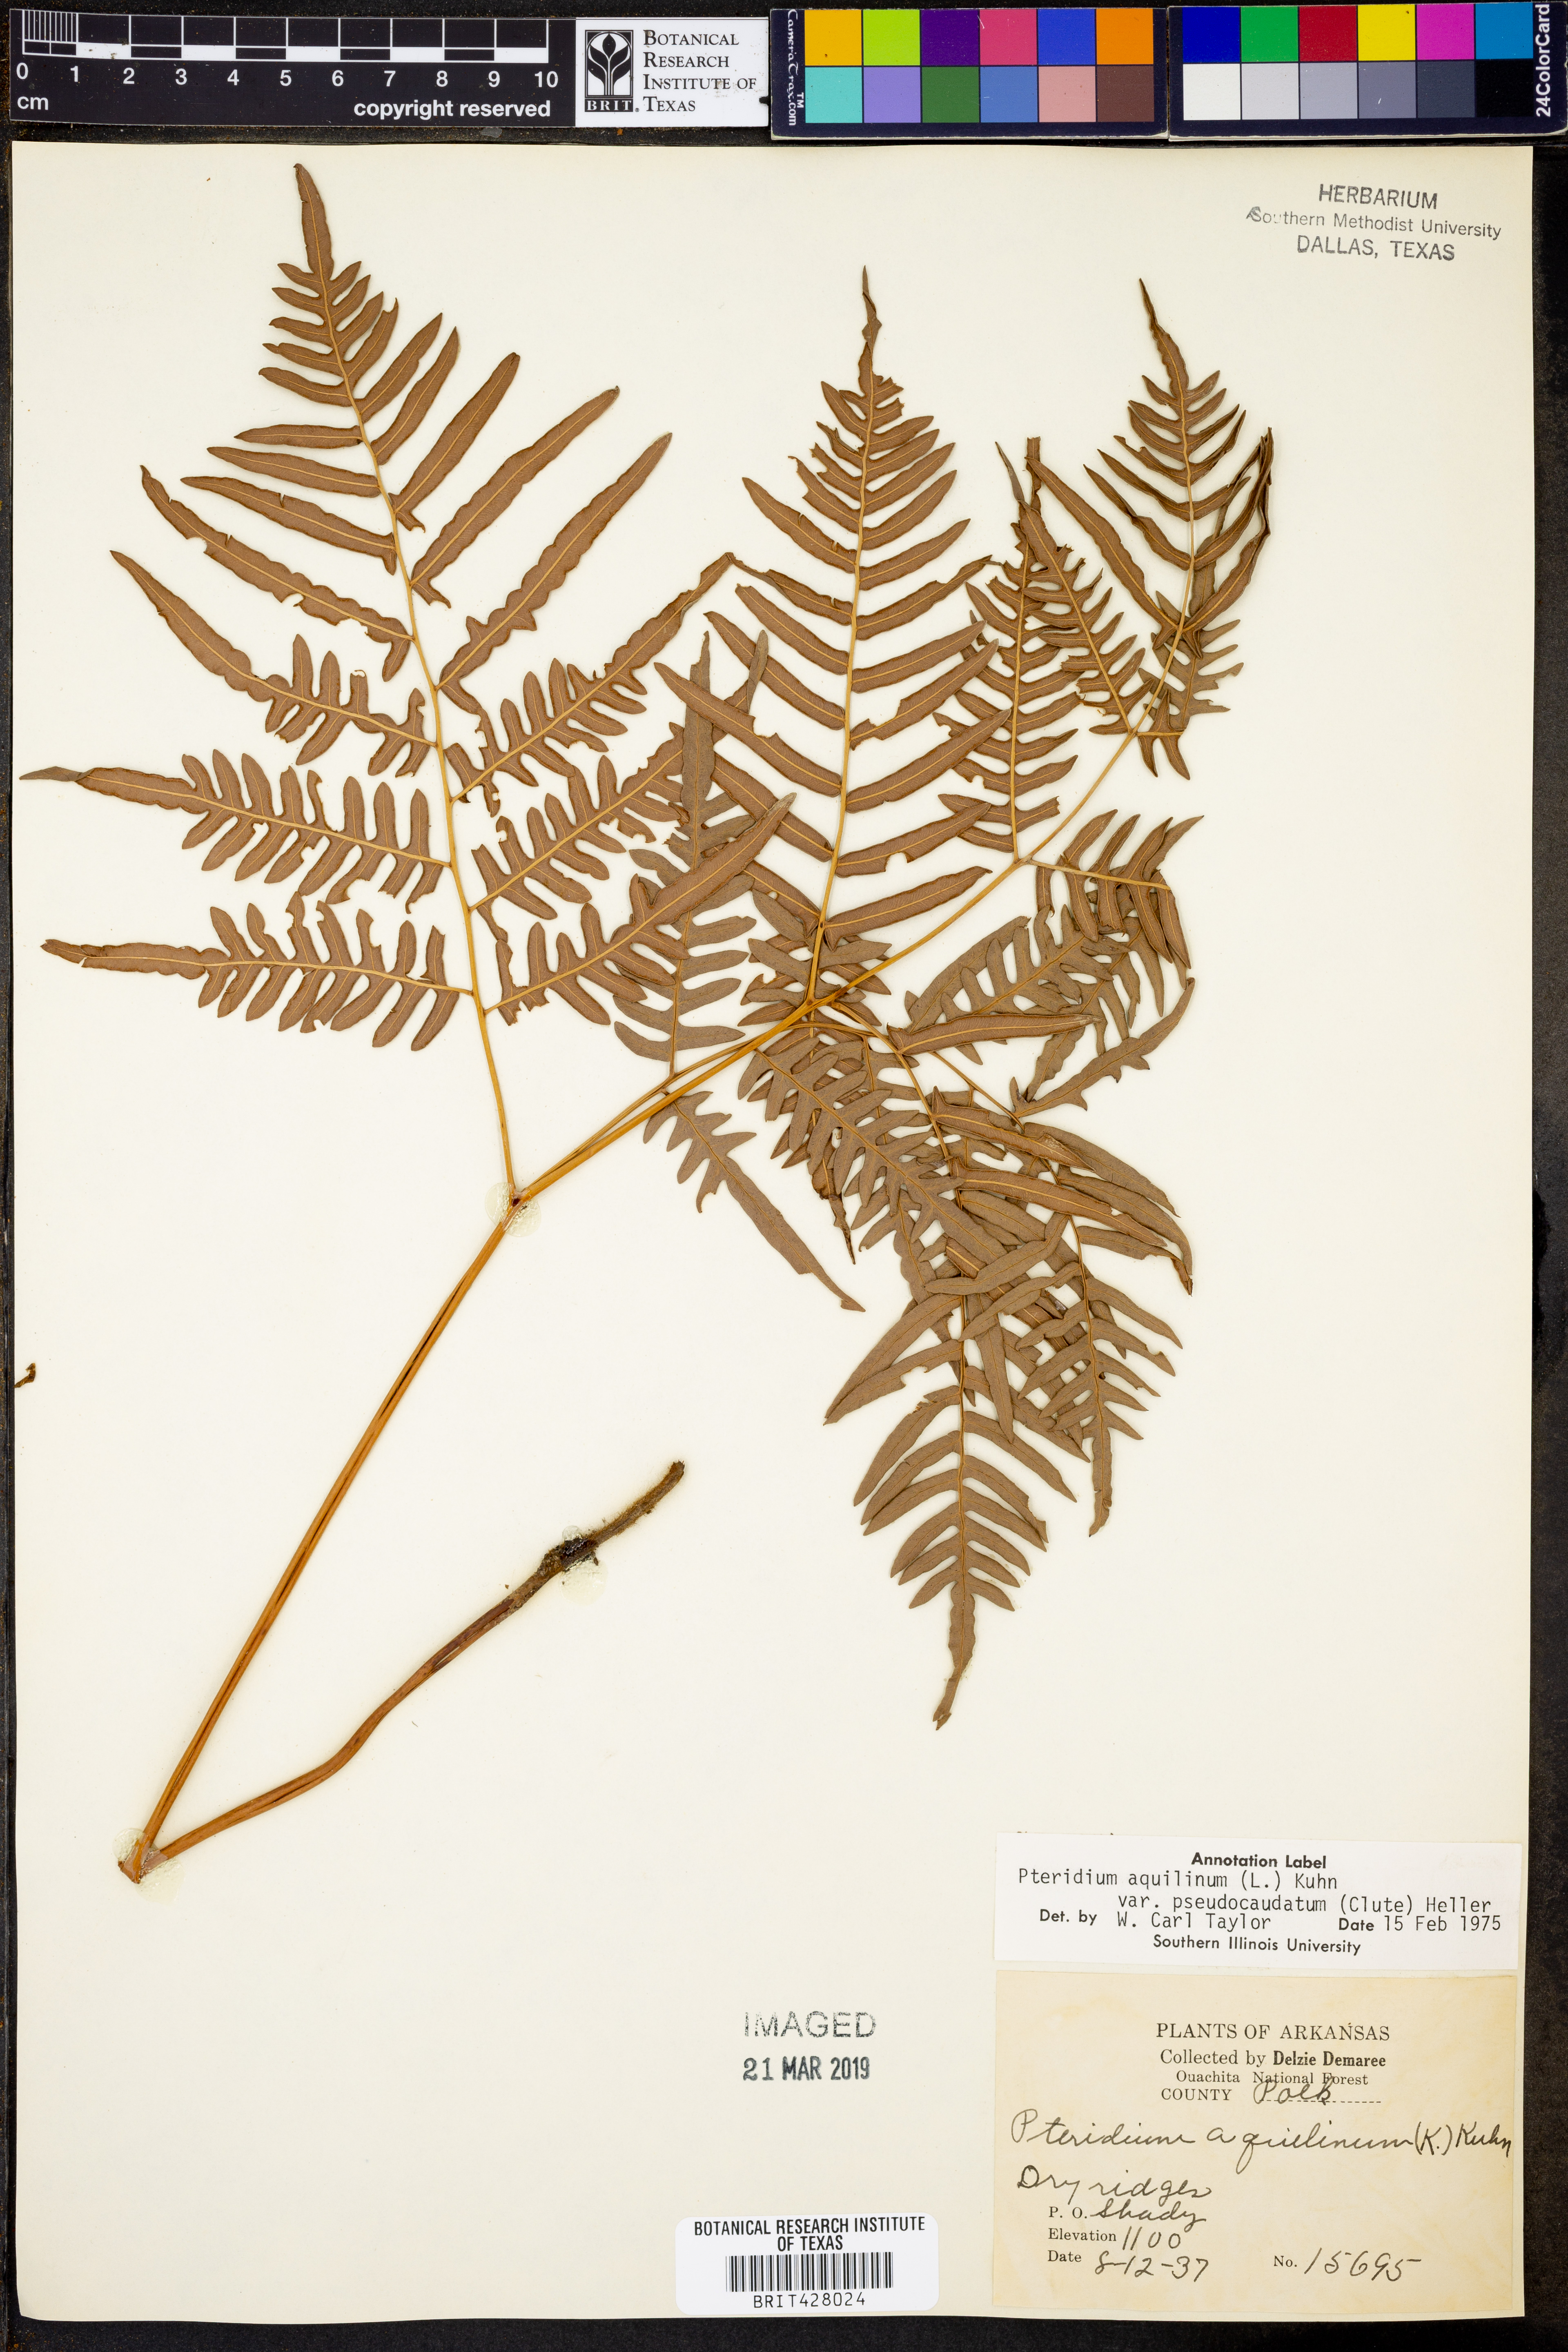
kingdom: Plantae
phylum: Tracheophyta
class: Polypodiopsida
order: Polypodiales
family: Dennstaedtiaceae
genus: Pteridium
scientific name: Pteridium aquilinum
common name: Bracken
